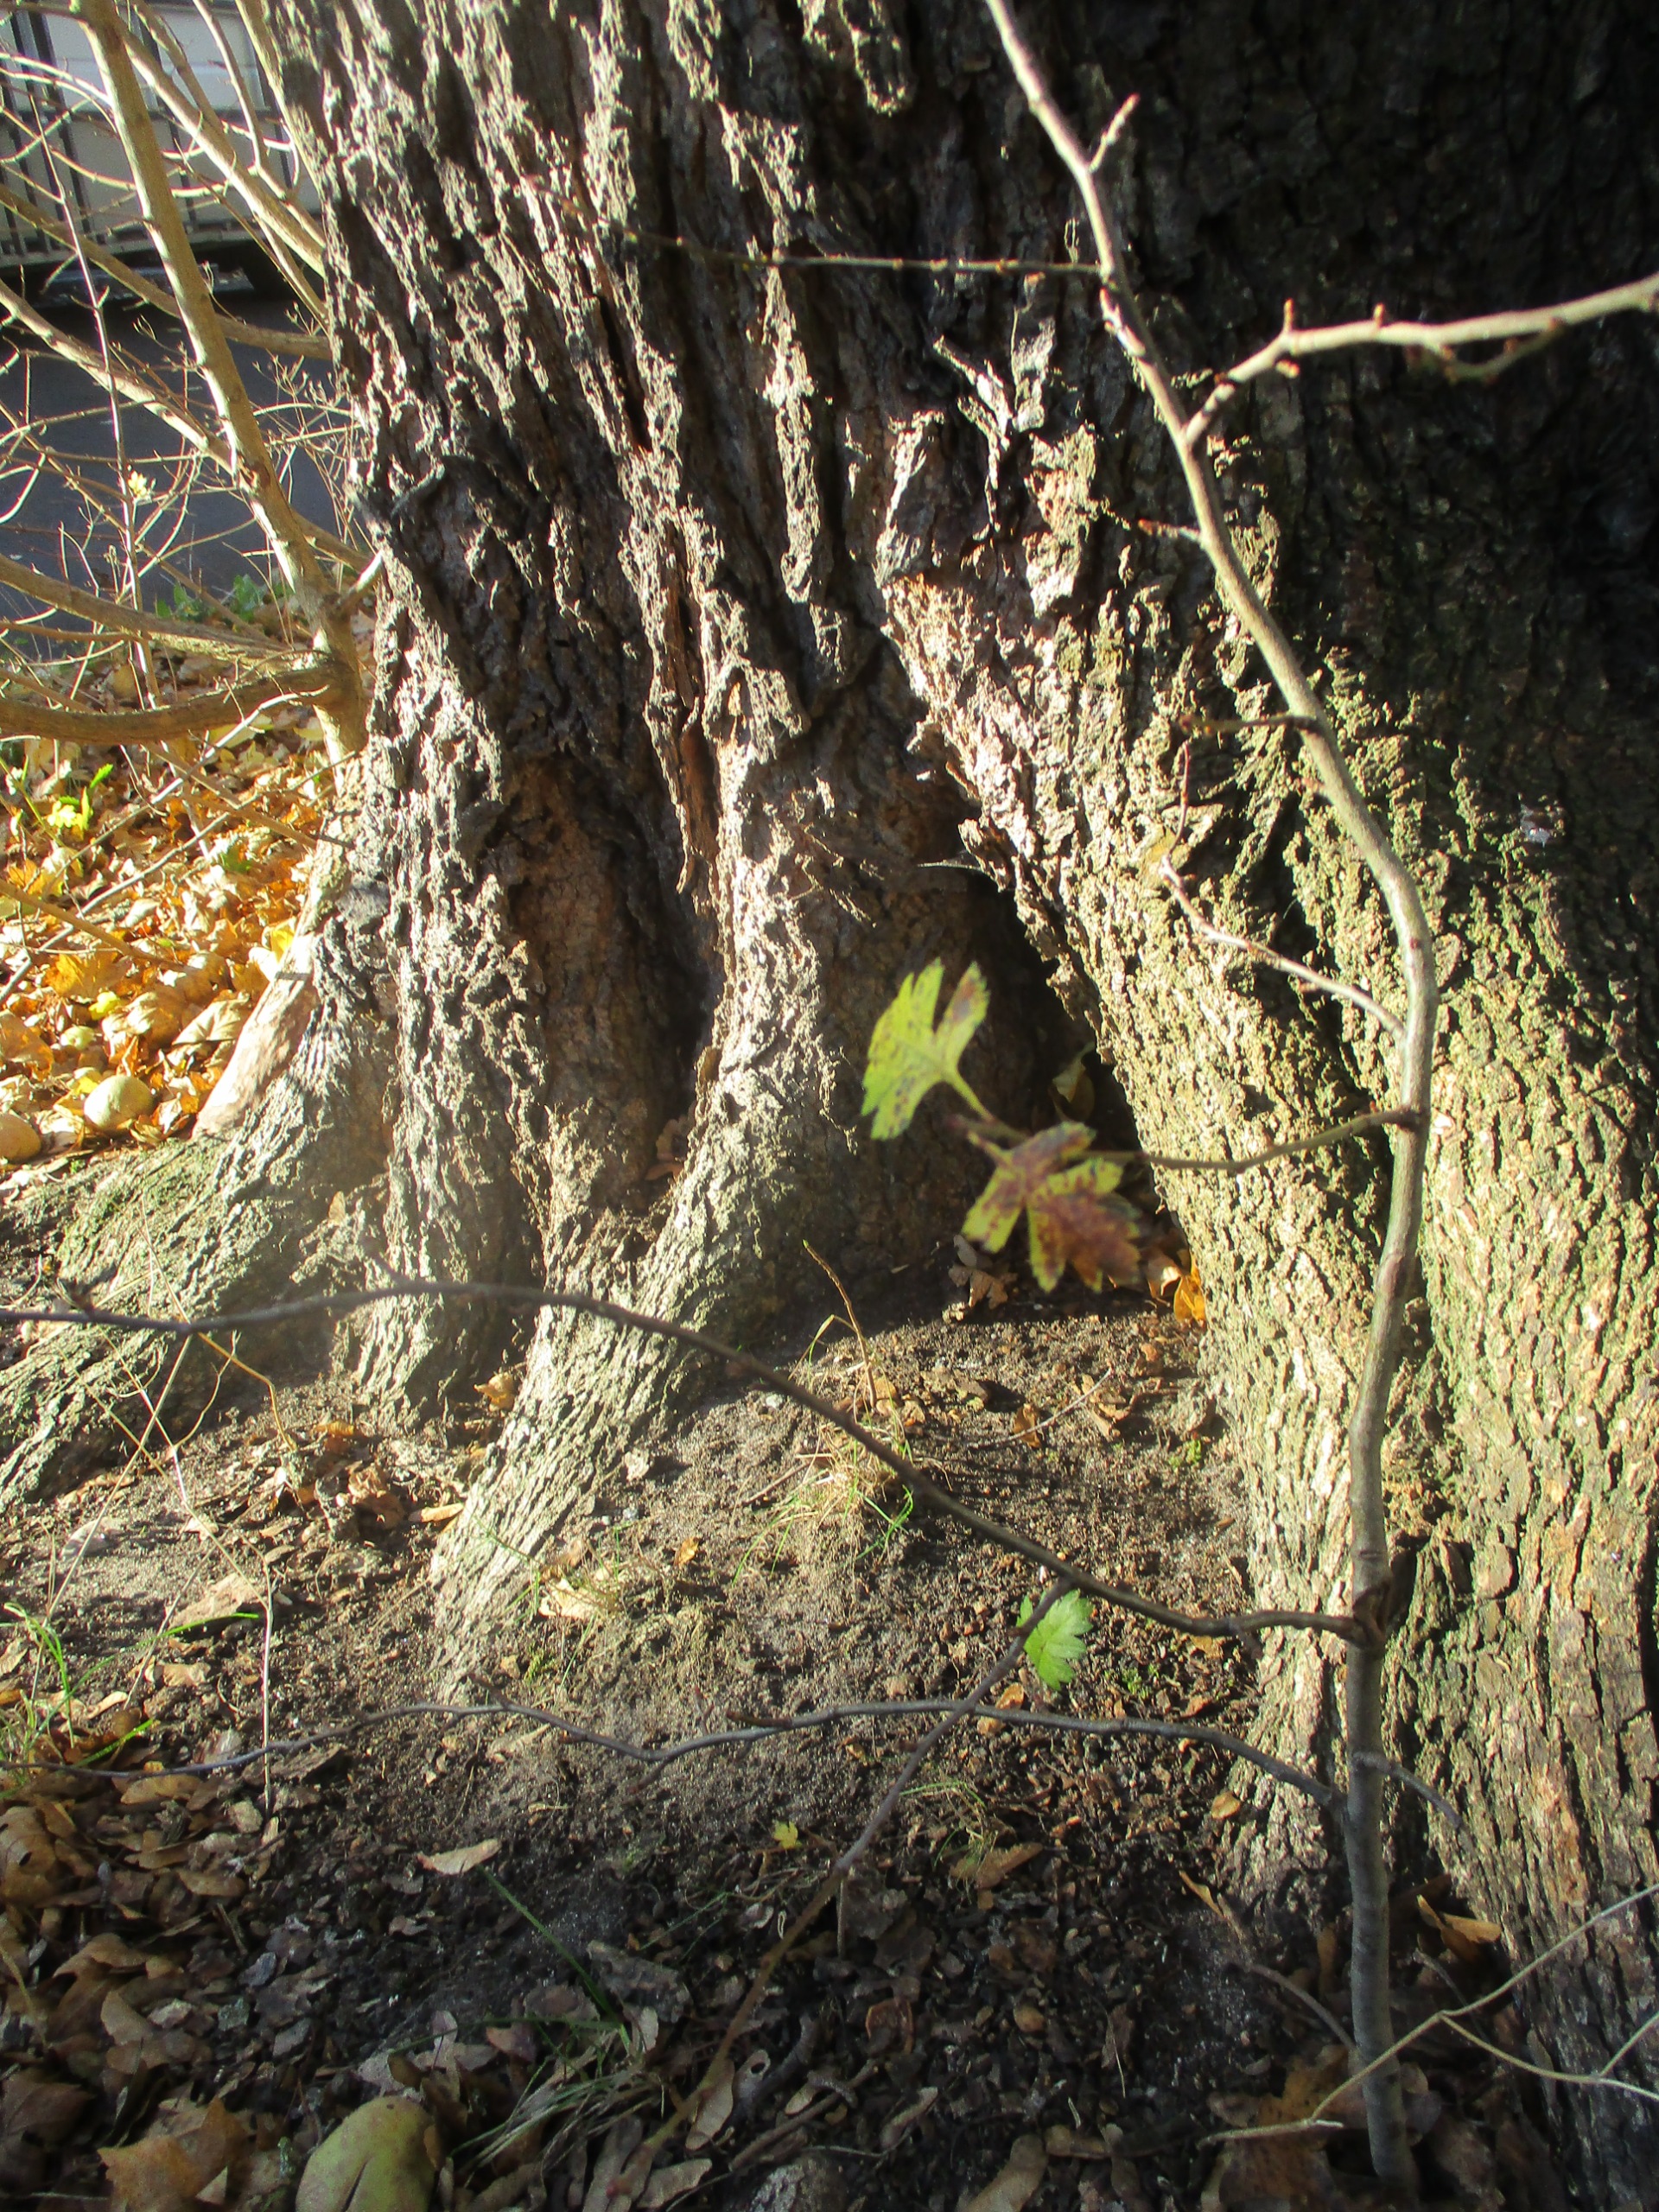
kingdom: Plantae
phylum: Tracheophyta
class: Magnoliopsida
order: Rosales
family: Rosaceae
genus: Crataegus
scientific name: Crataegus laevigata
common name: Almindelig hvidtjørn
